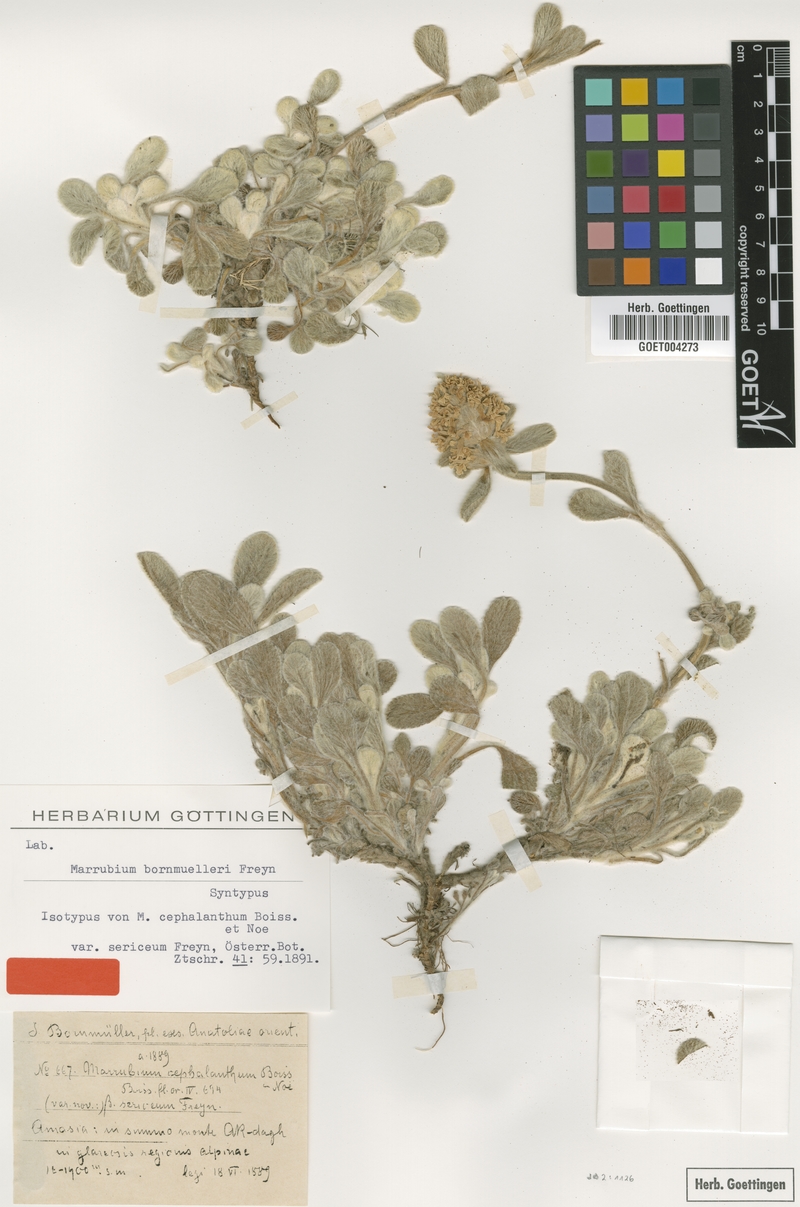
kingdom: Plantae
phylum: Tracheophyta
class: Magnoliopsida
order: Lamiales
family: Lamiaceae
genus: Marrubium
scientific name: Marrubium cephalanthum
